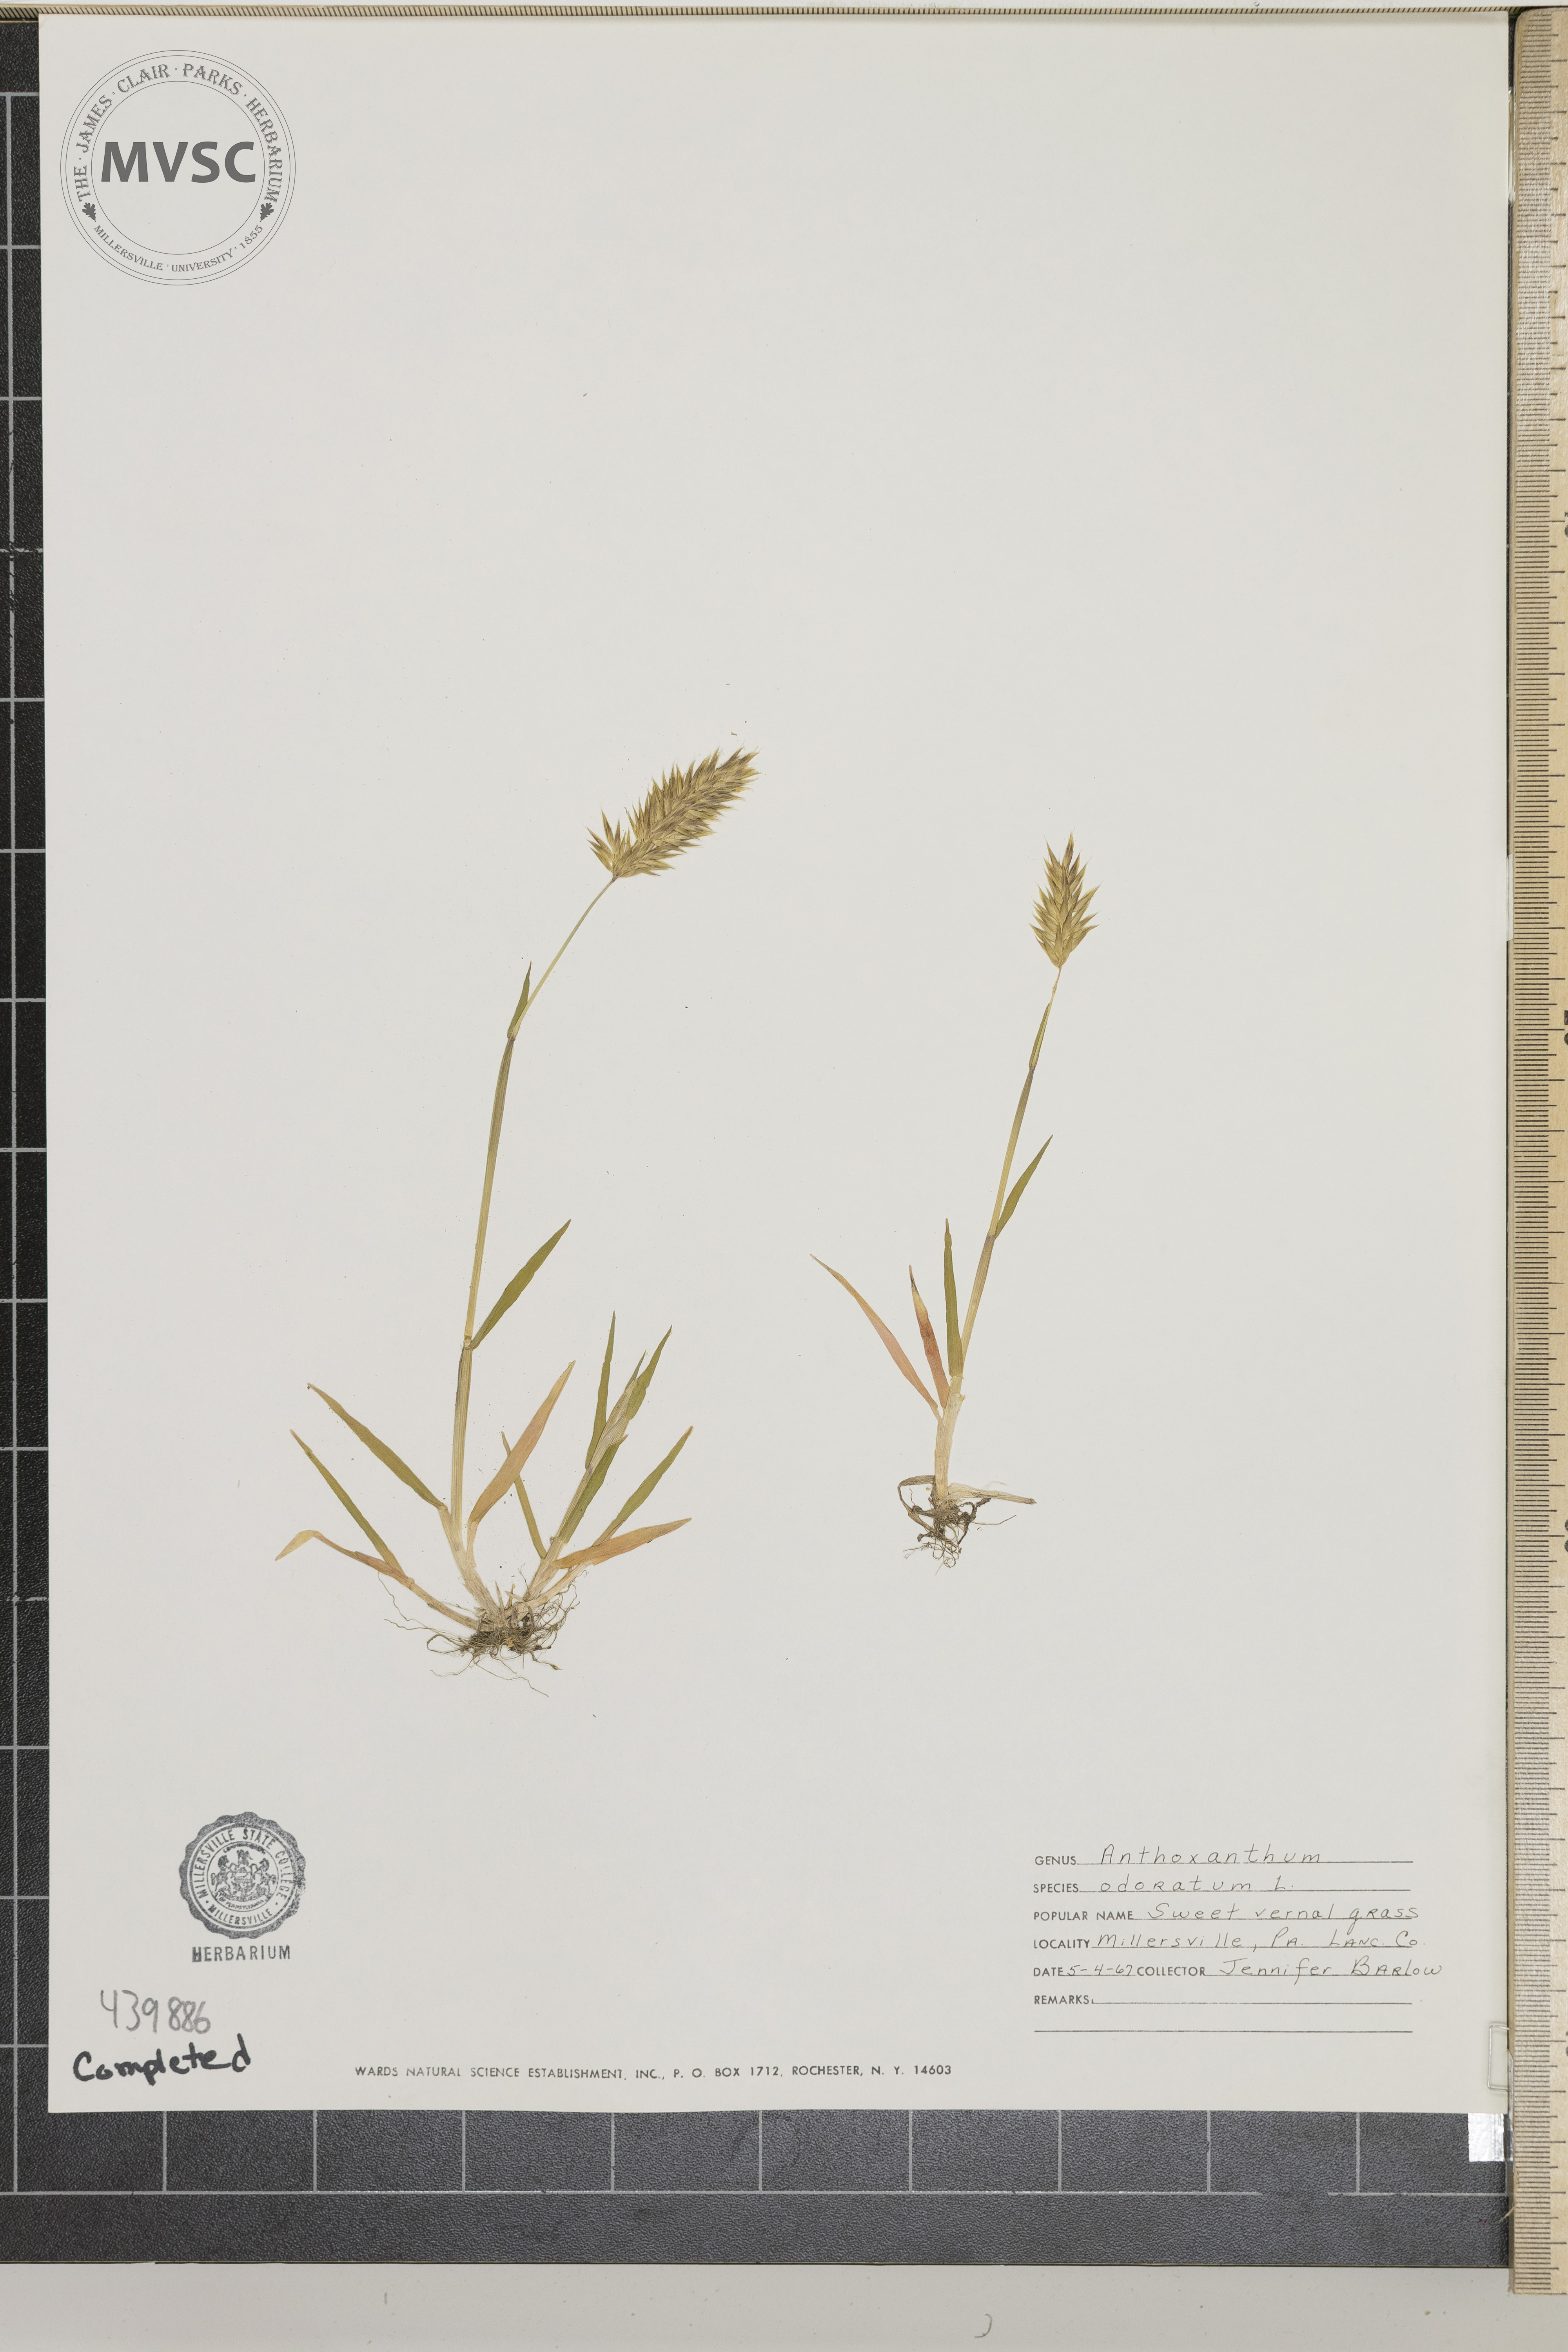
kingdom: Plantae
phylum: Tracheophyta
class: Liliopsida
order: Poales
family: Poaceae
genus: Anthoxanthum
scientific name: Anthoxanthum odoratum
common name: Sweet vernalgrass
